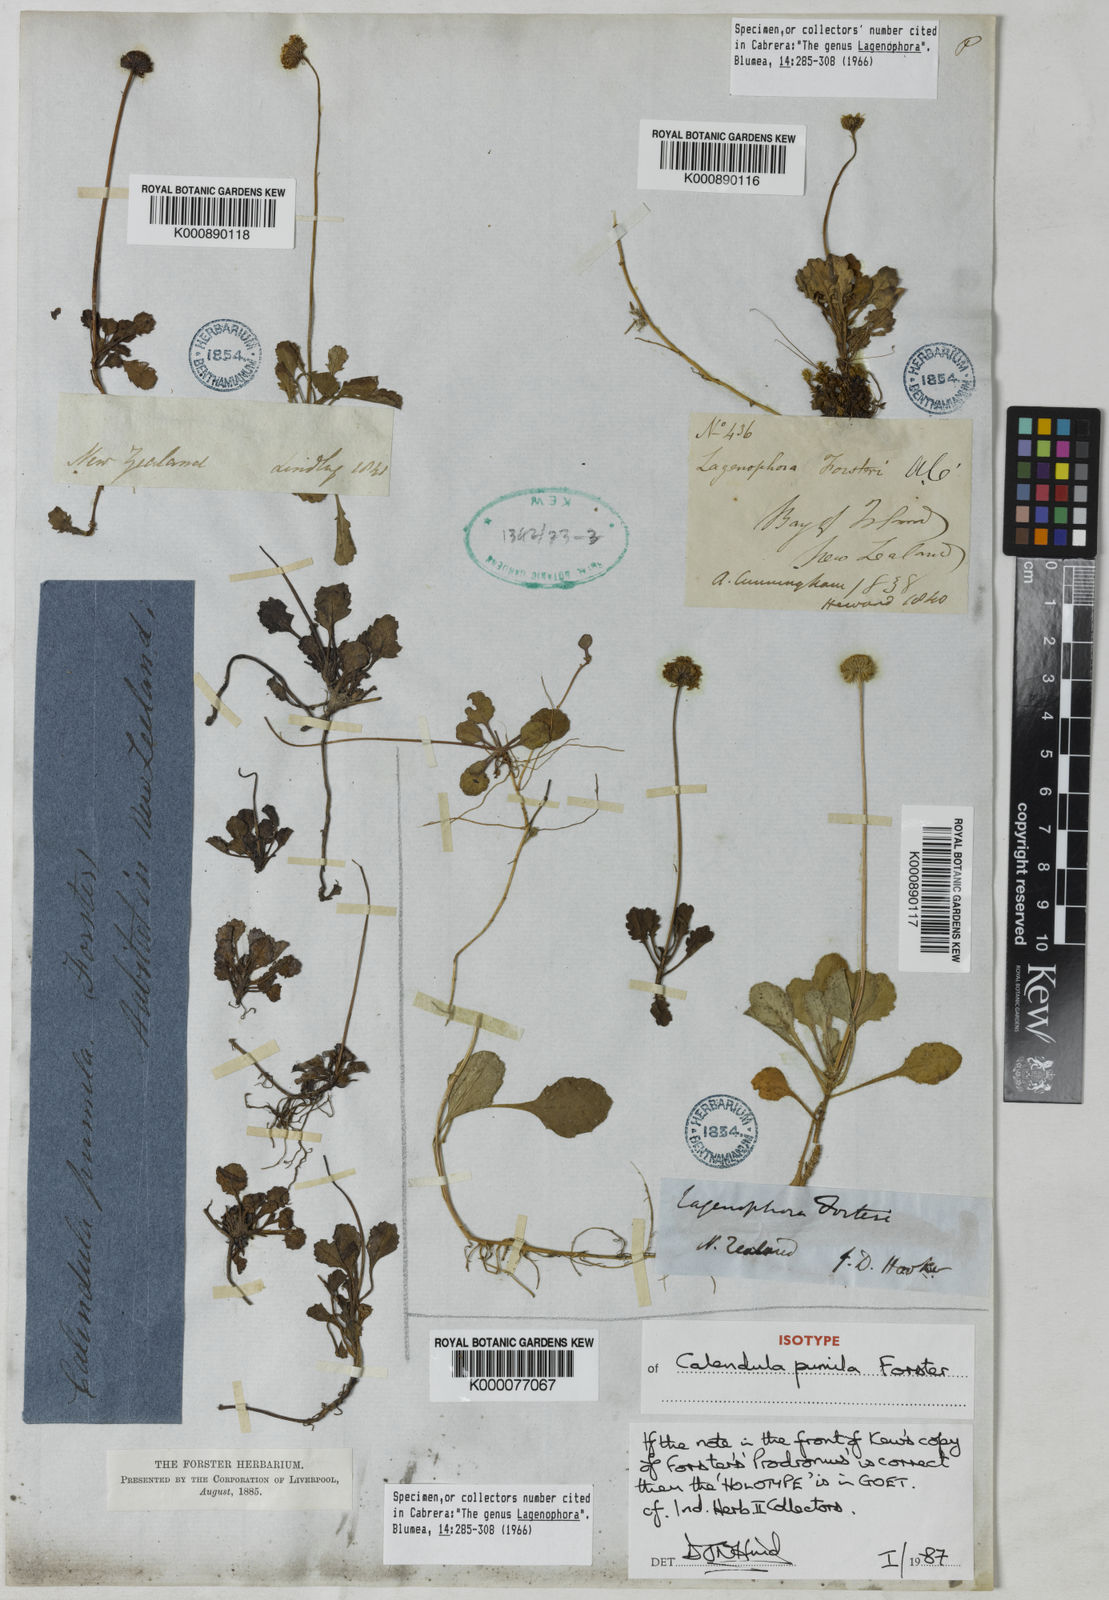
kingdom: Plantae
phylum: Tracheophyta
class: Magnoliopsida
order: Asterales
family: Asteraceae
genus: Lagenophora
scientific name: Lagenophora pumila
